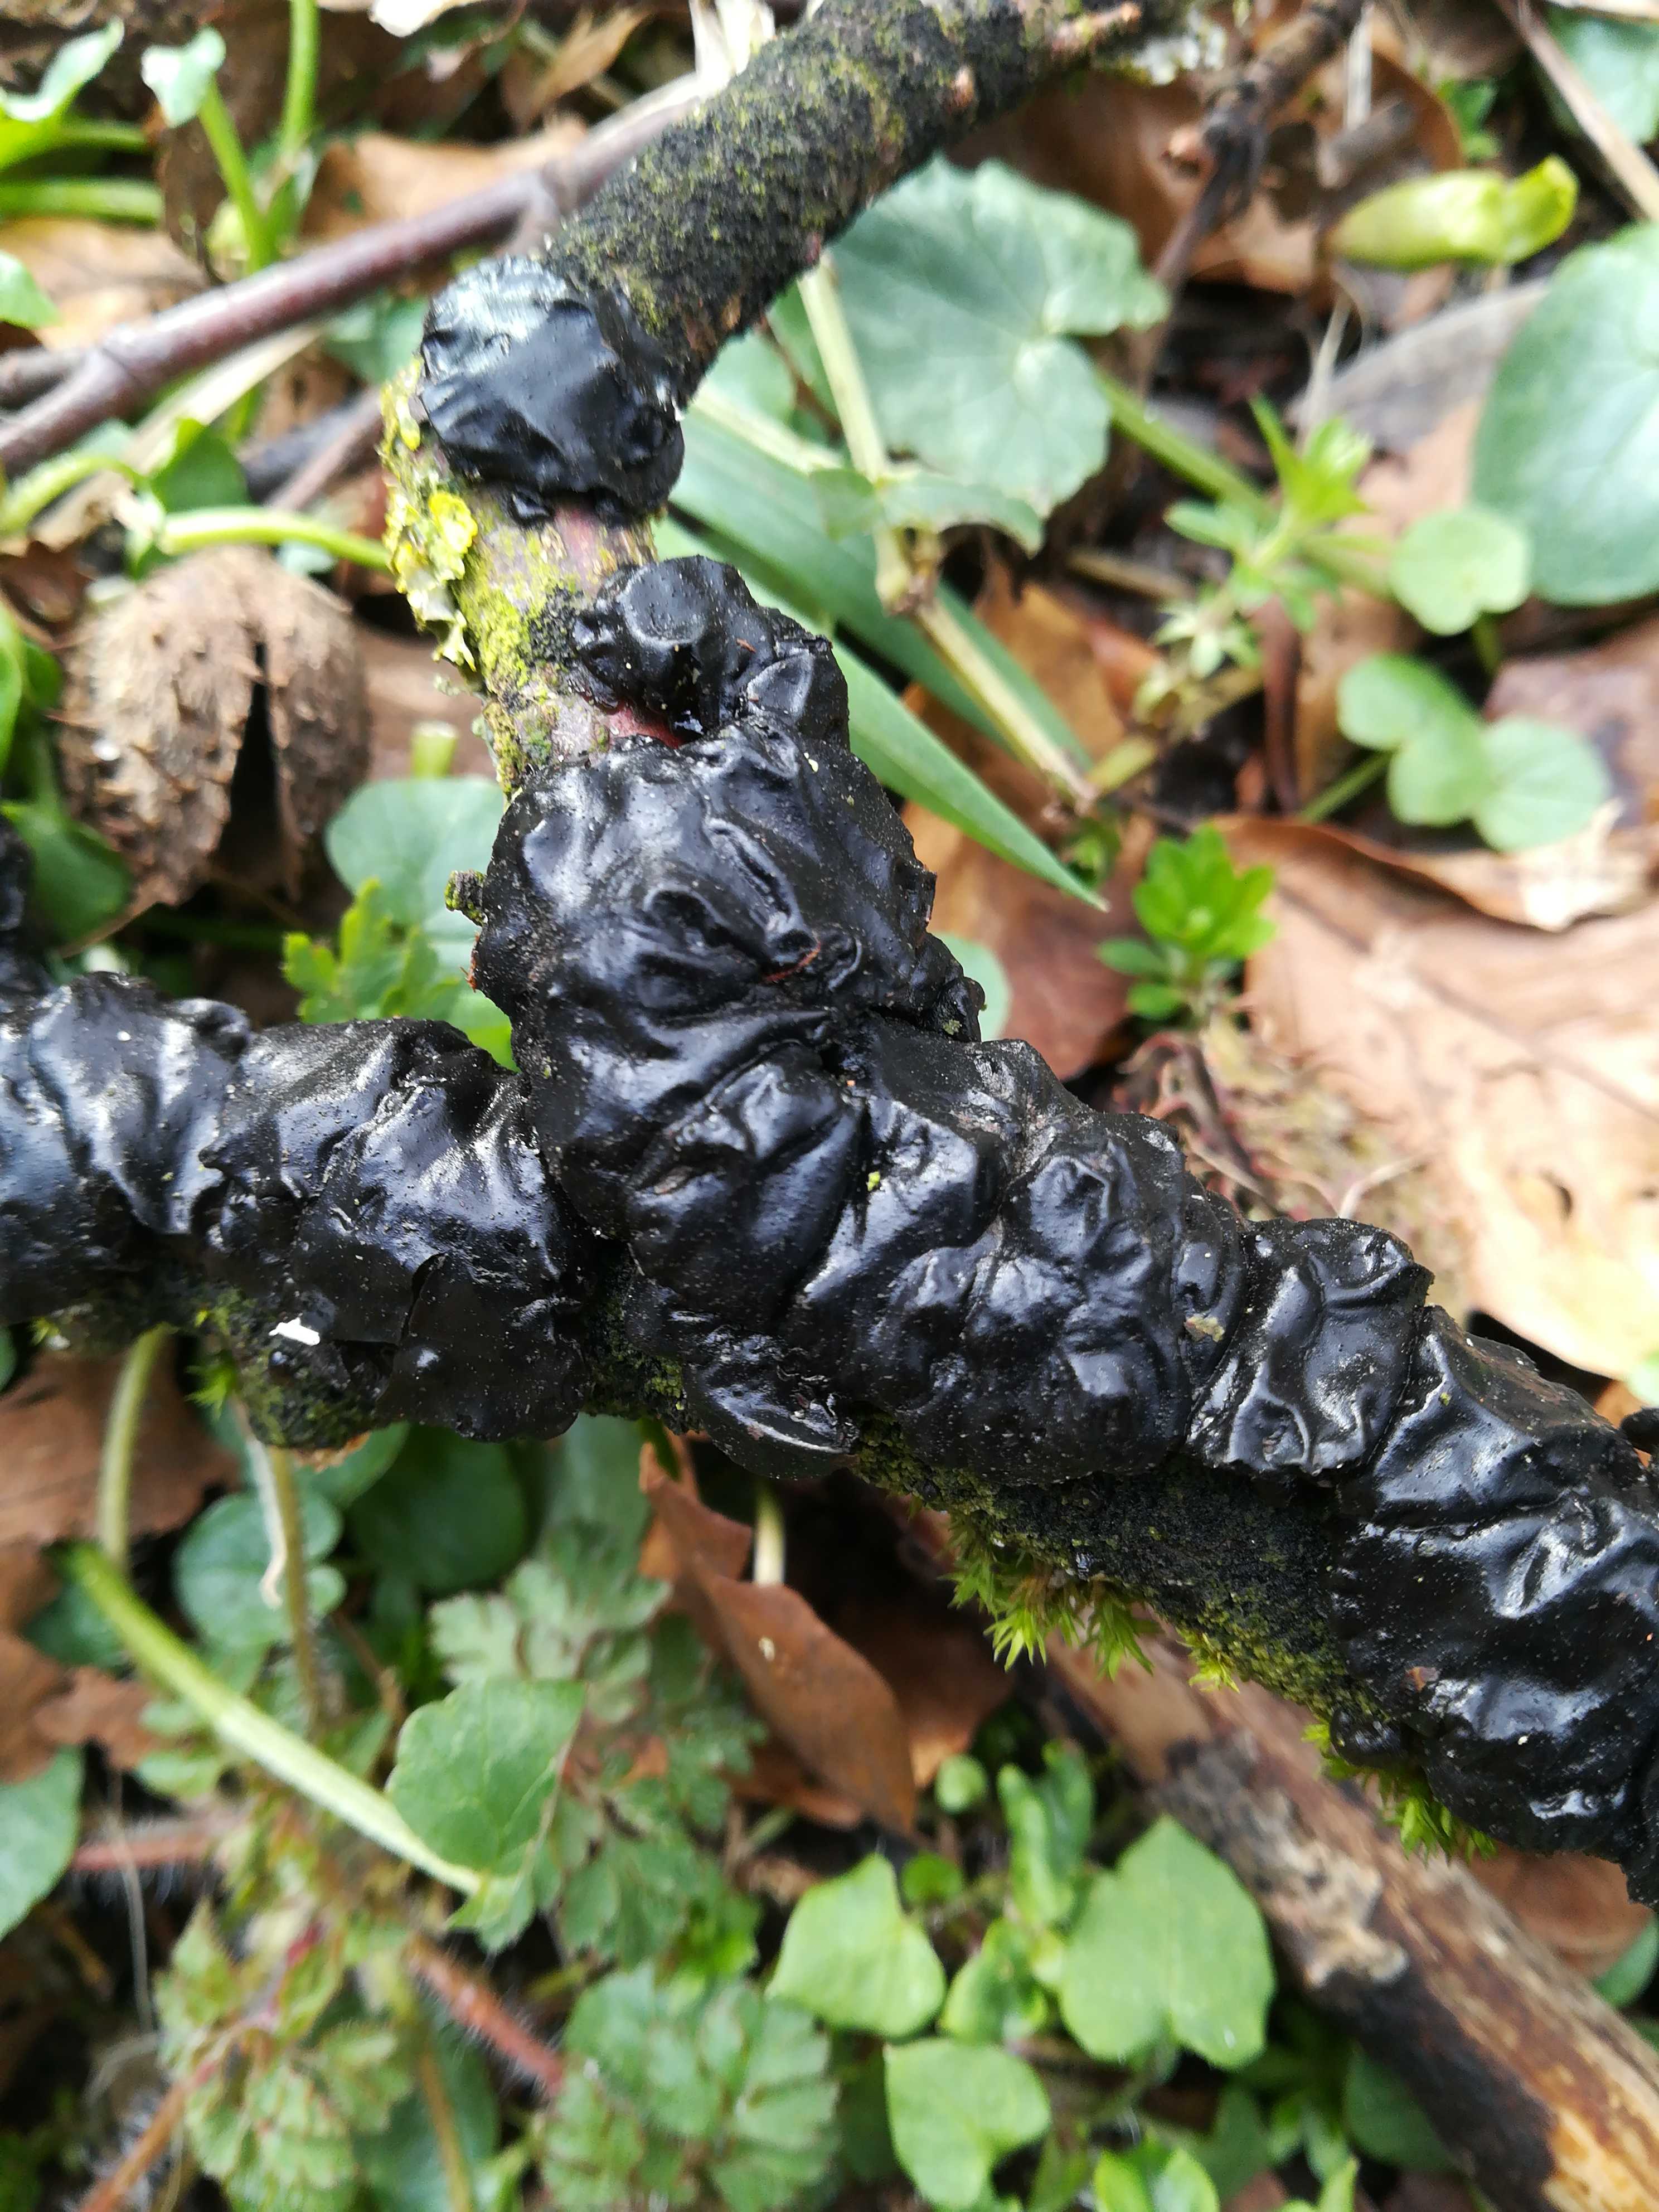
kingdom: Fungi
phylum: Basidiomycota
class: Agaricomycetes
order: Auriculariales
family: Auriculariaceae
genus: Exidia
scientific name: Exidia nigricans
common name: almindelig bævretop
